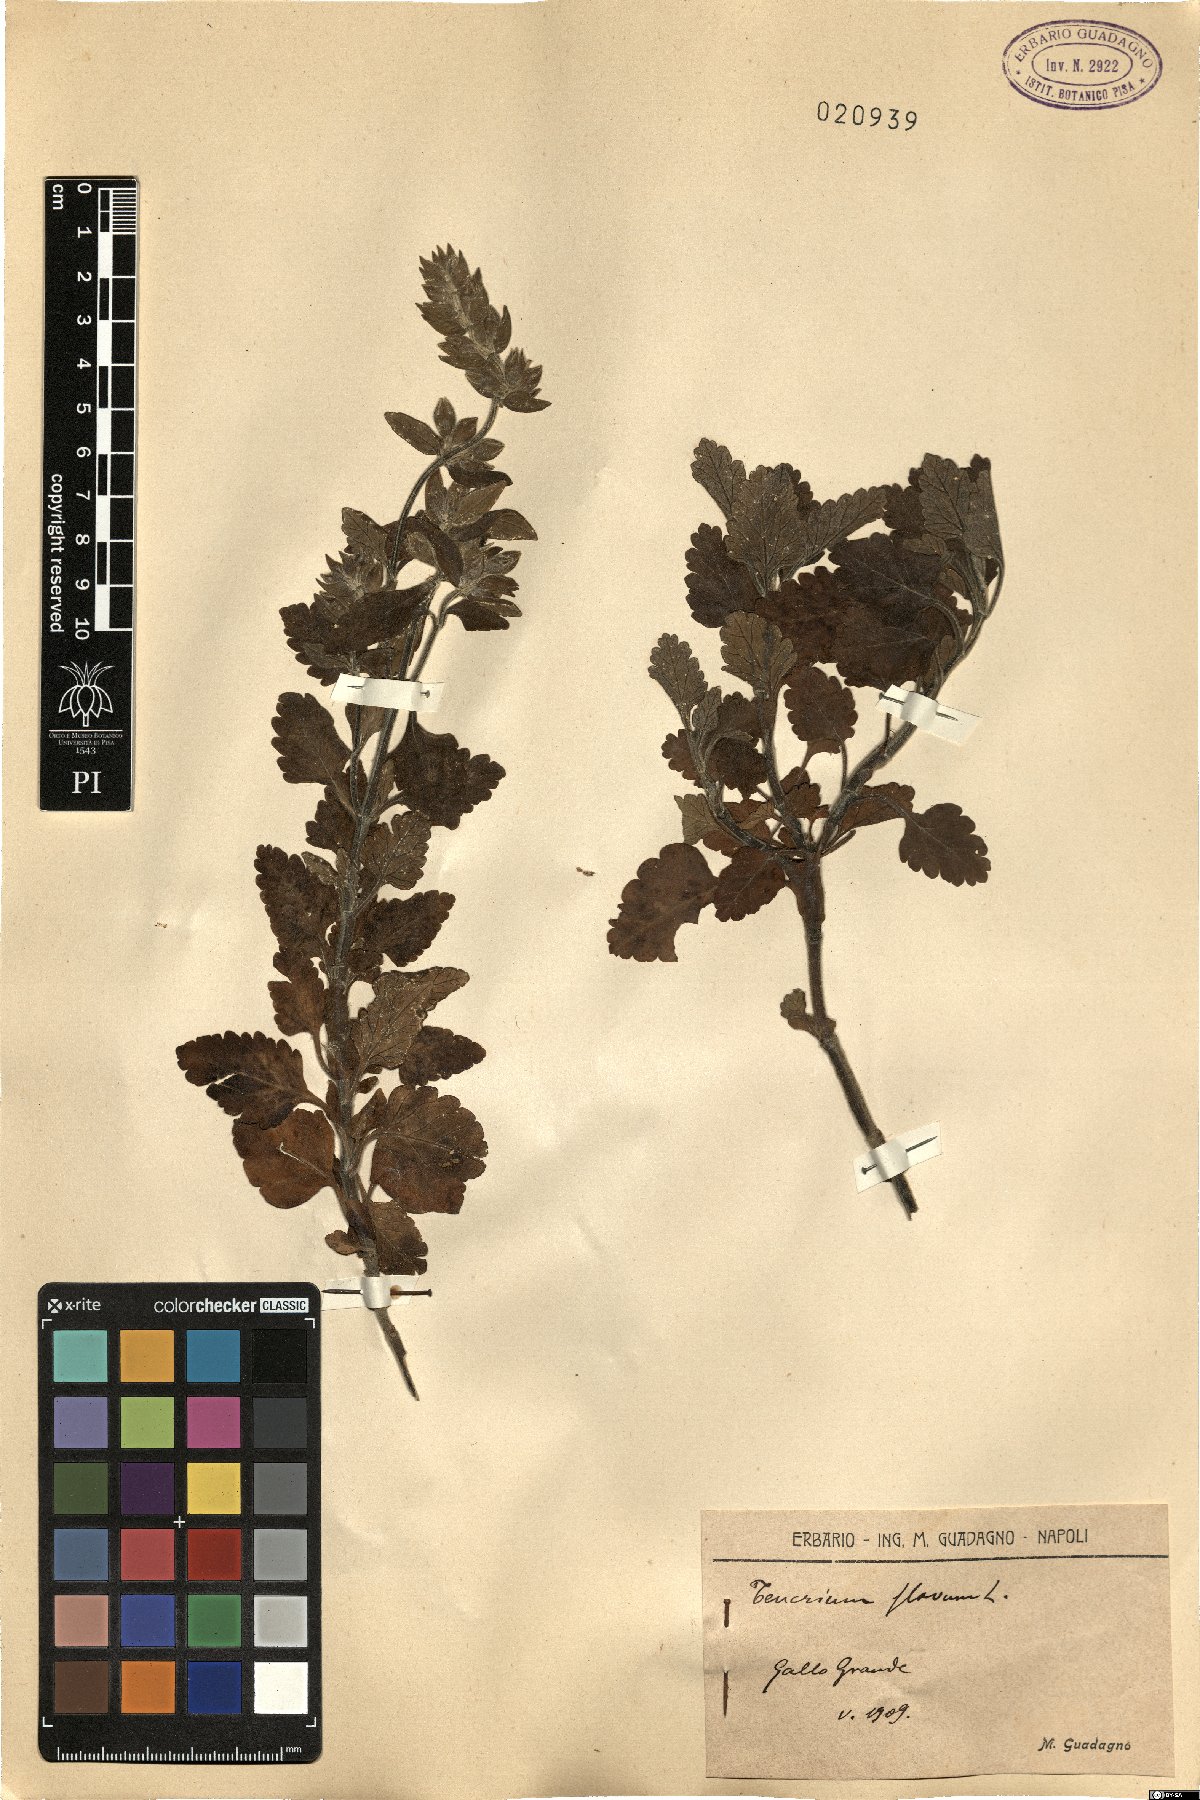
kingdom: Plantae
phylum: Tracheophyta
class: Magnoliopsida
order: Lamiales
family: Lamiaceae
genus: Teucrium
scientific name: Teucrium flavum
